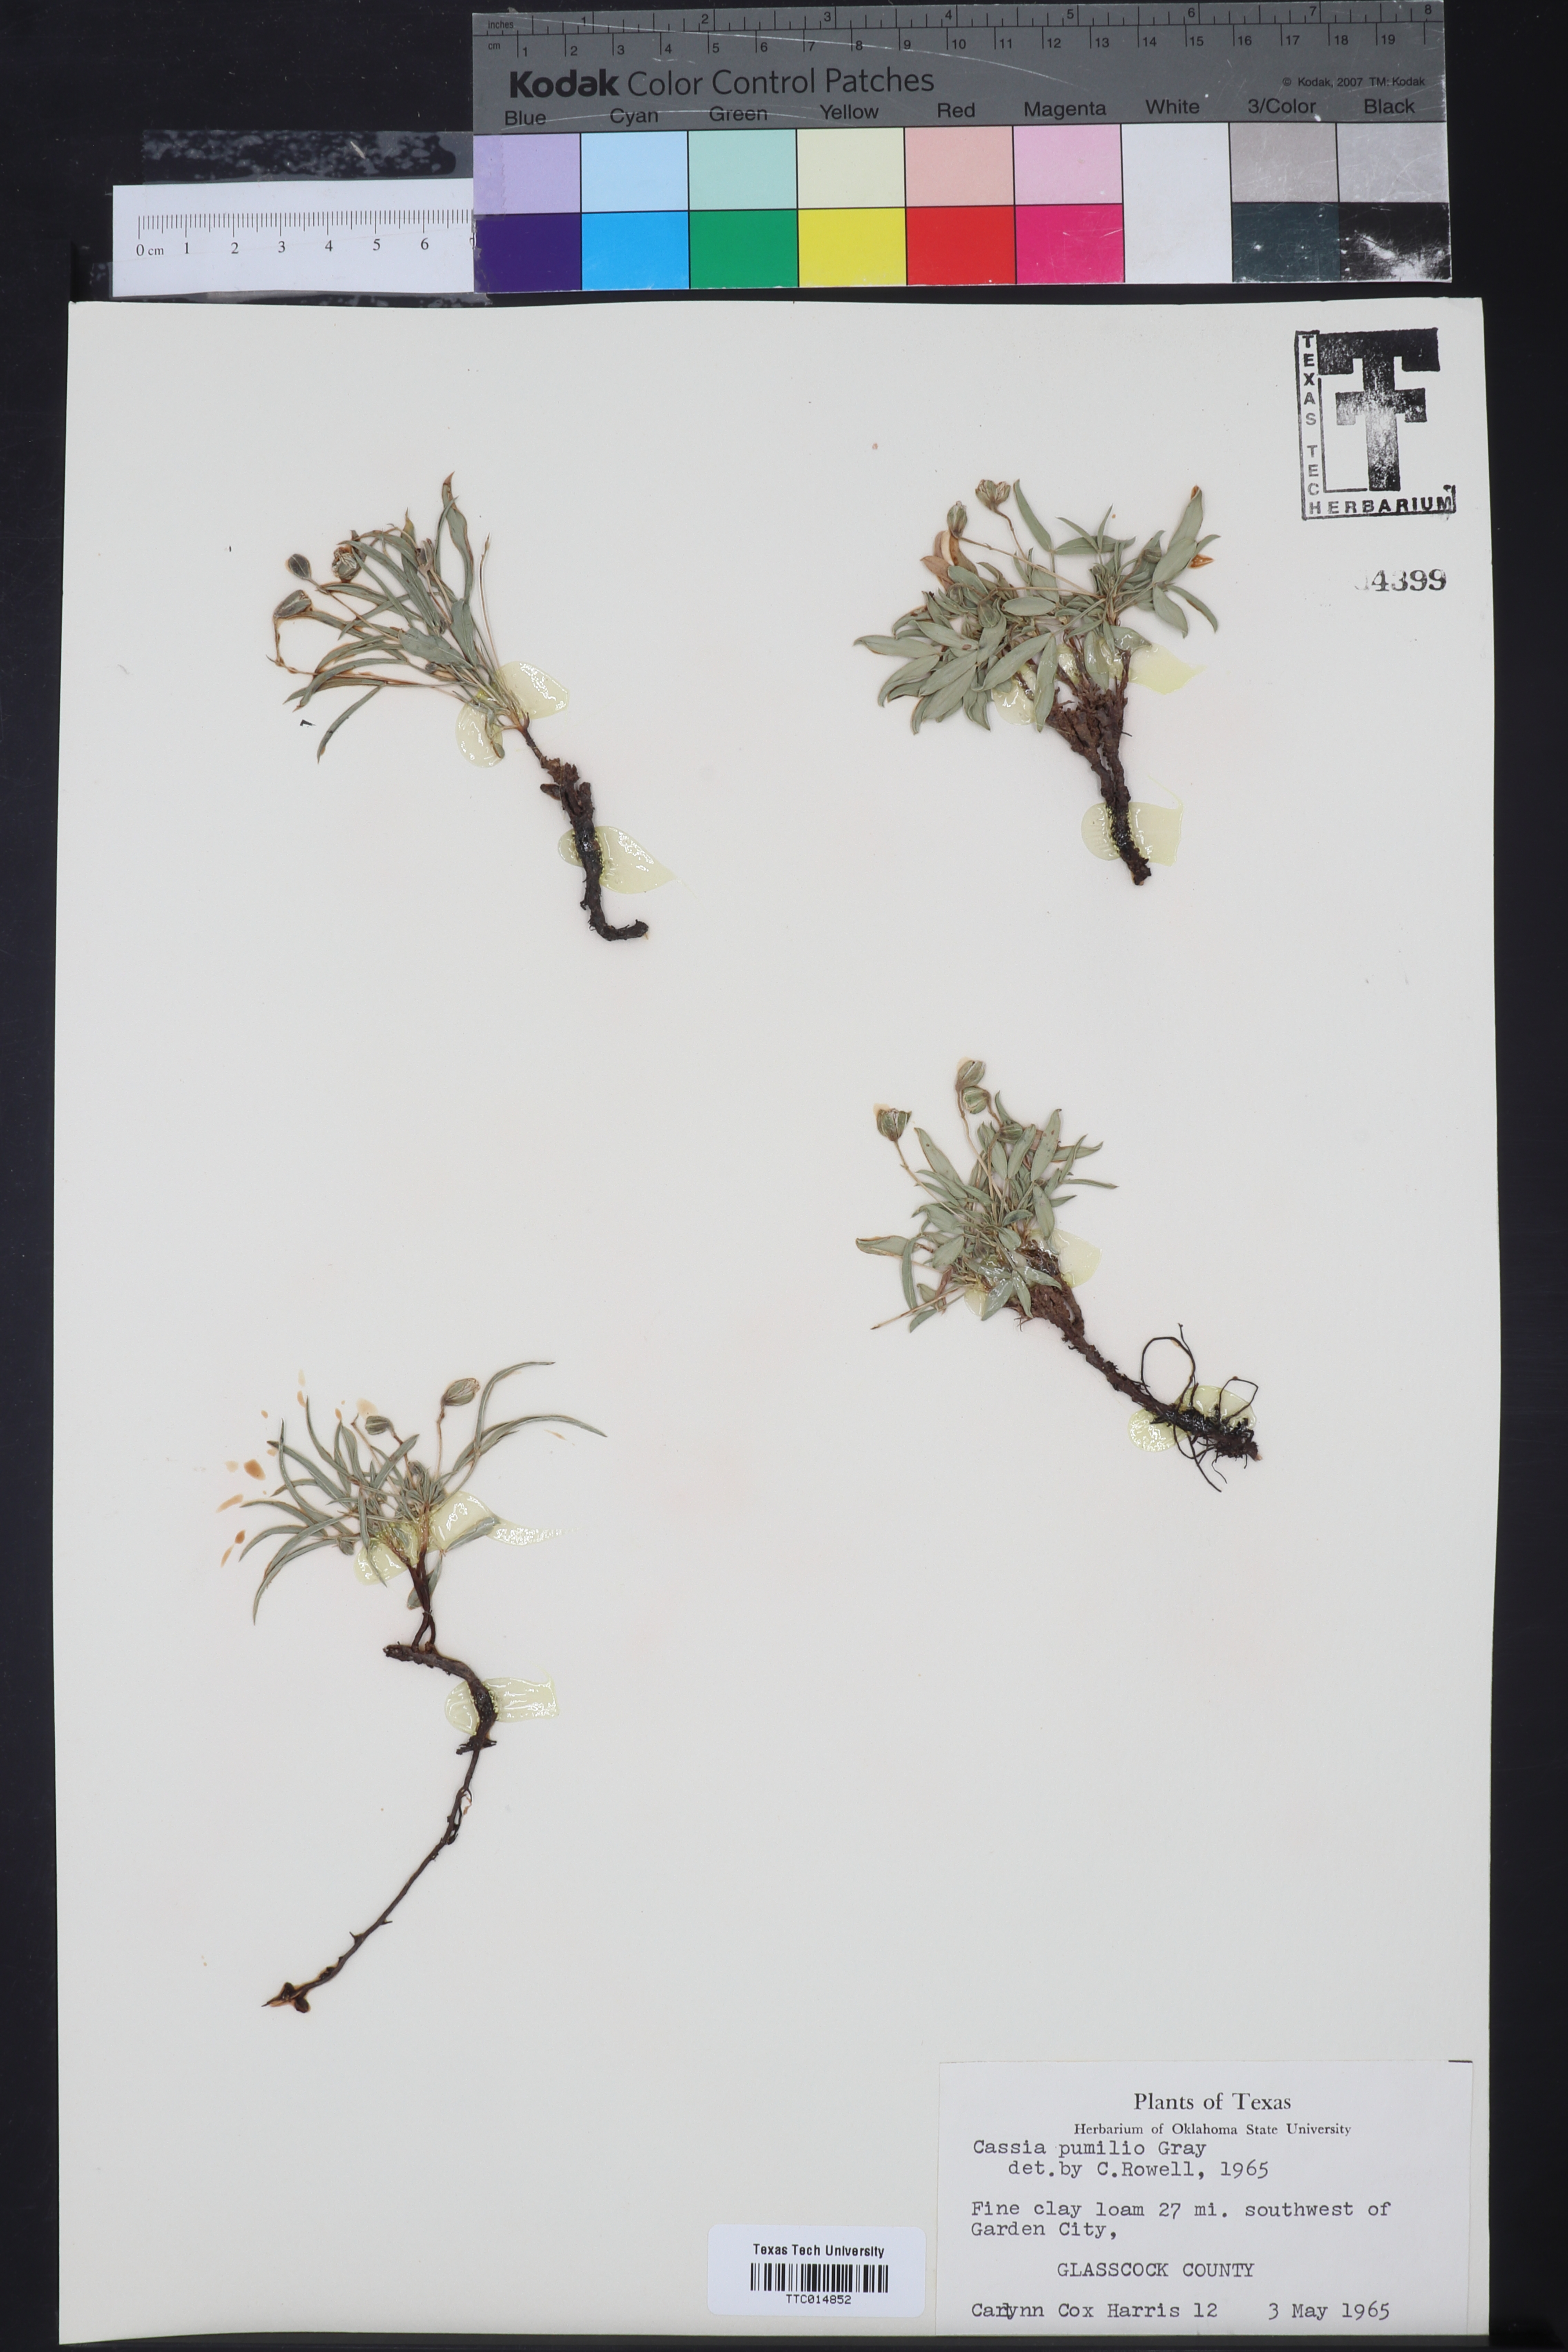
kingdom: Plantae
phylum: Tracheophyta
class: Magnoliopsida
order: Fabales
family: Fabaceae
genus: Senna
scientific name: Senna pumilio
